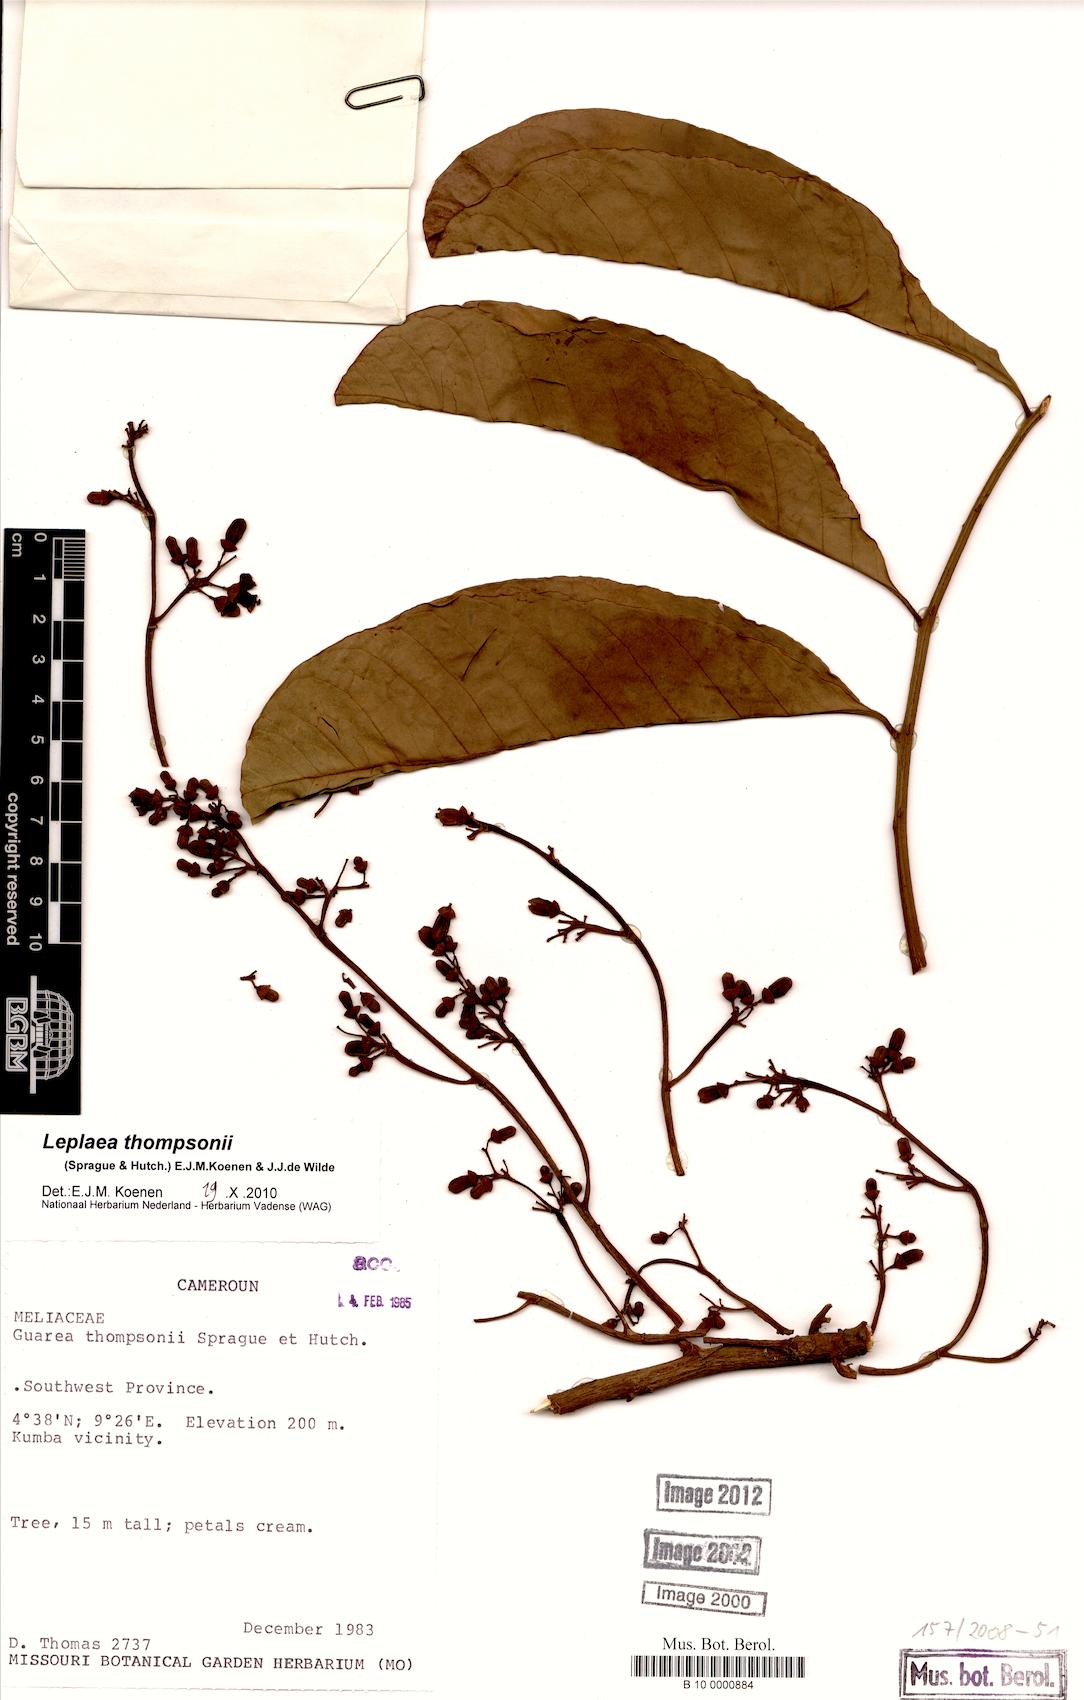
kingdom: Plantae
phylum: Tracheophyta
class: Magnoliopsida
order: Sapindales
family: Meliaceae
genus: Leplaea
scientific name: Leplaea thompsonii
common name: Black guarea
